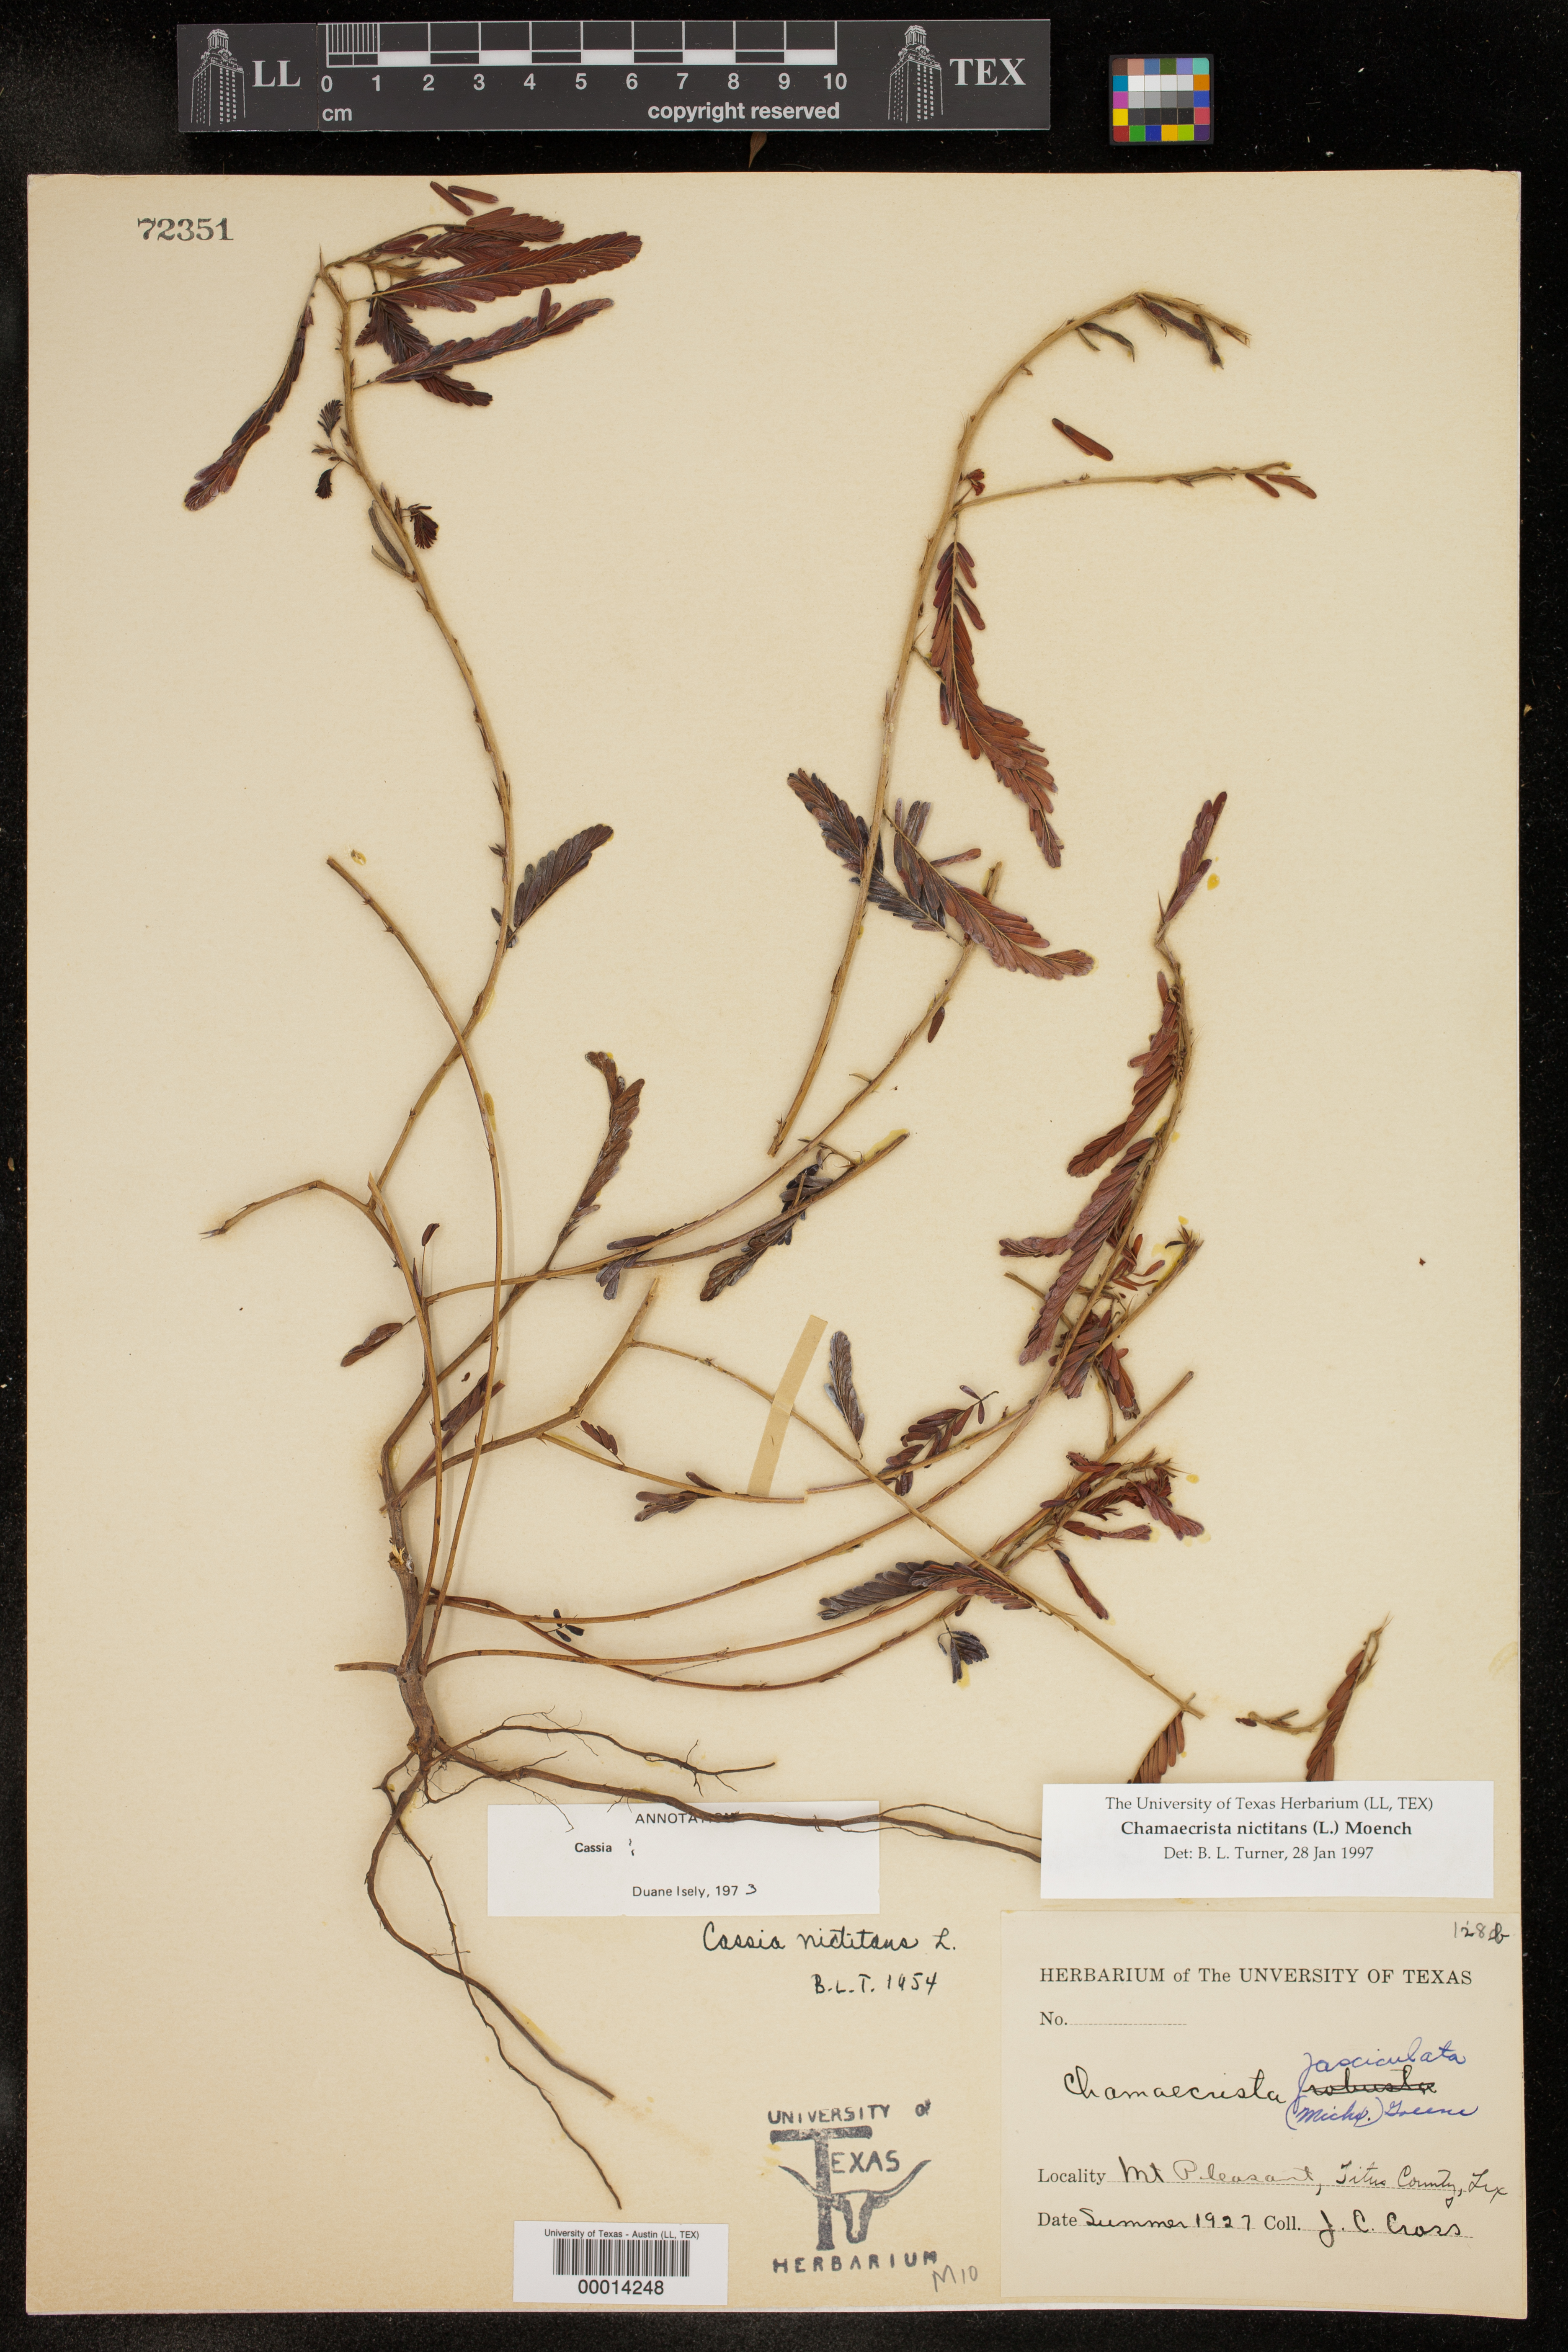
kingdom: Plantae
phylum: Tracheophyta
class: Magnoliopsida
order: Fabales
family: Fabaceae
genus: Chamaecrista
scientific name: Chamaecrista nictitans
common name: Sensitive cassia
